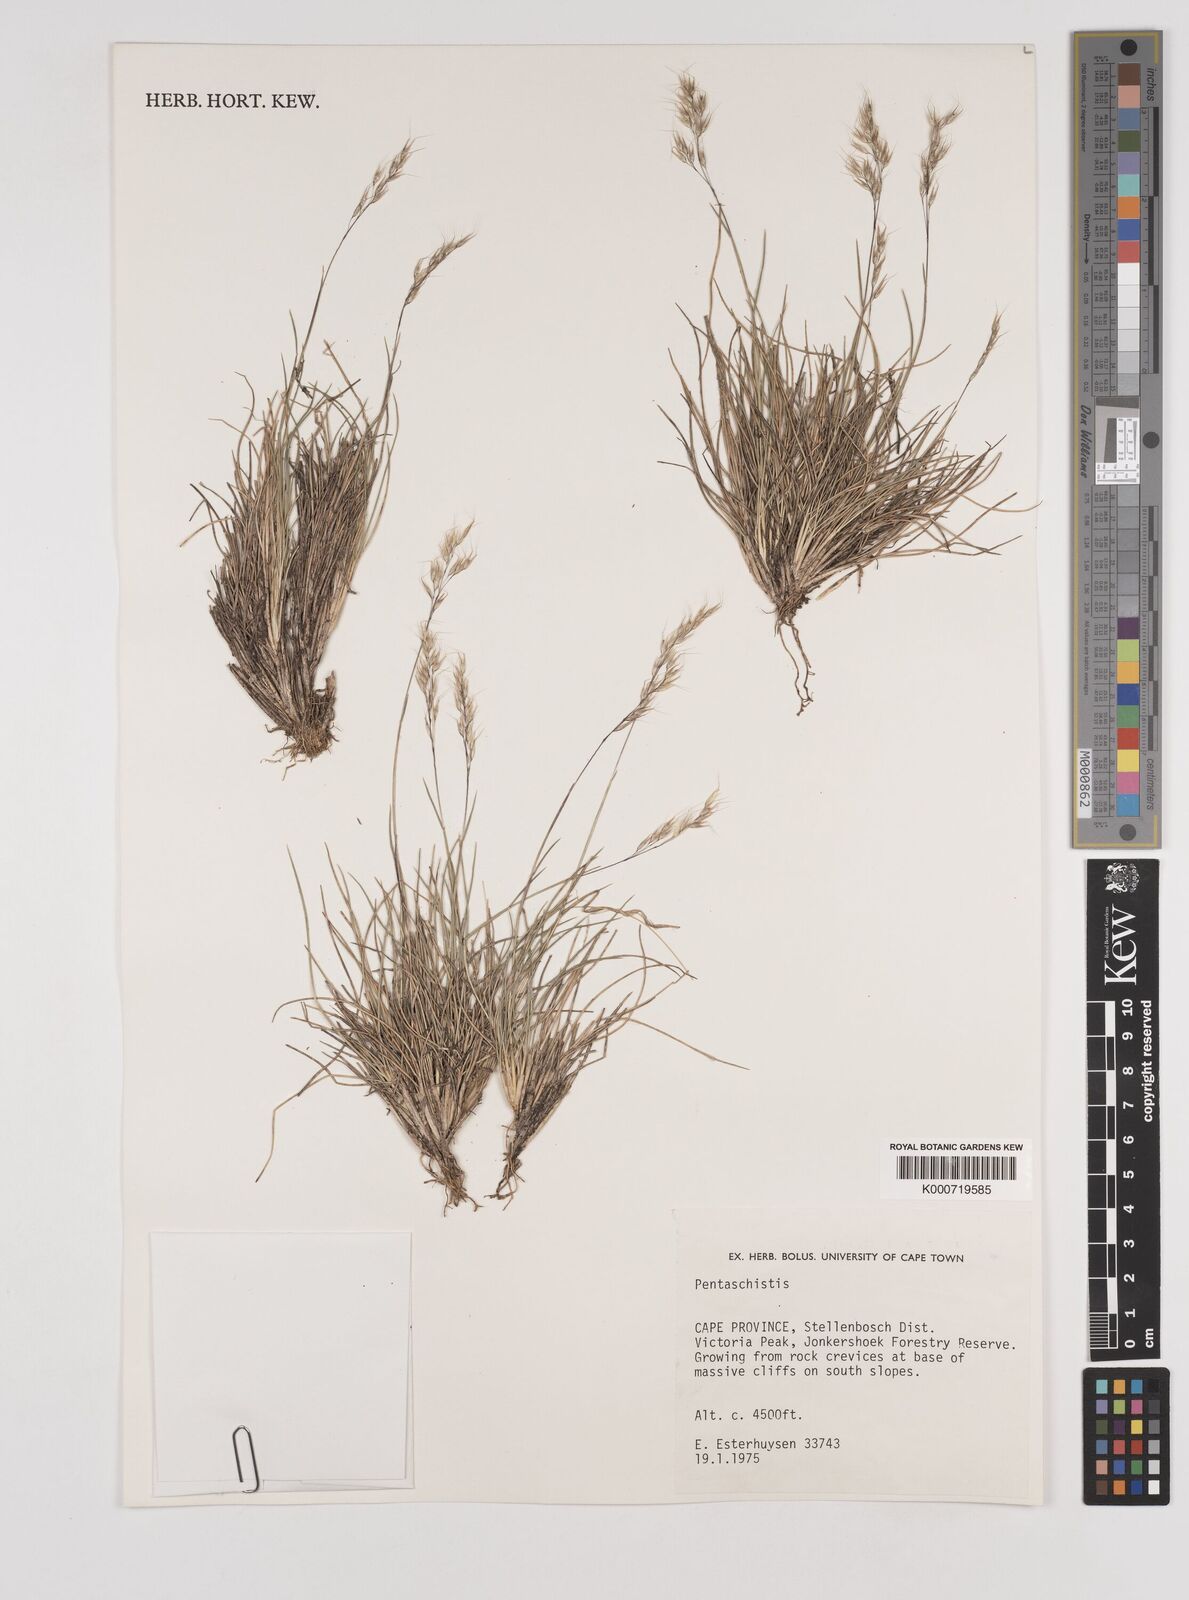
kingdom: Plantae
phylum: Tracheophyta
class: Liliopsida
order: Poales
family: Poaceae
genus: Pentameris
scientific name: Pentameris rigidissima
